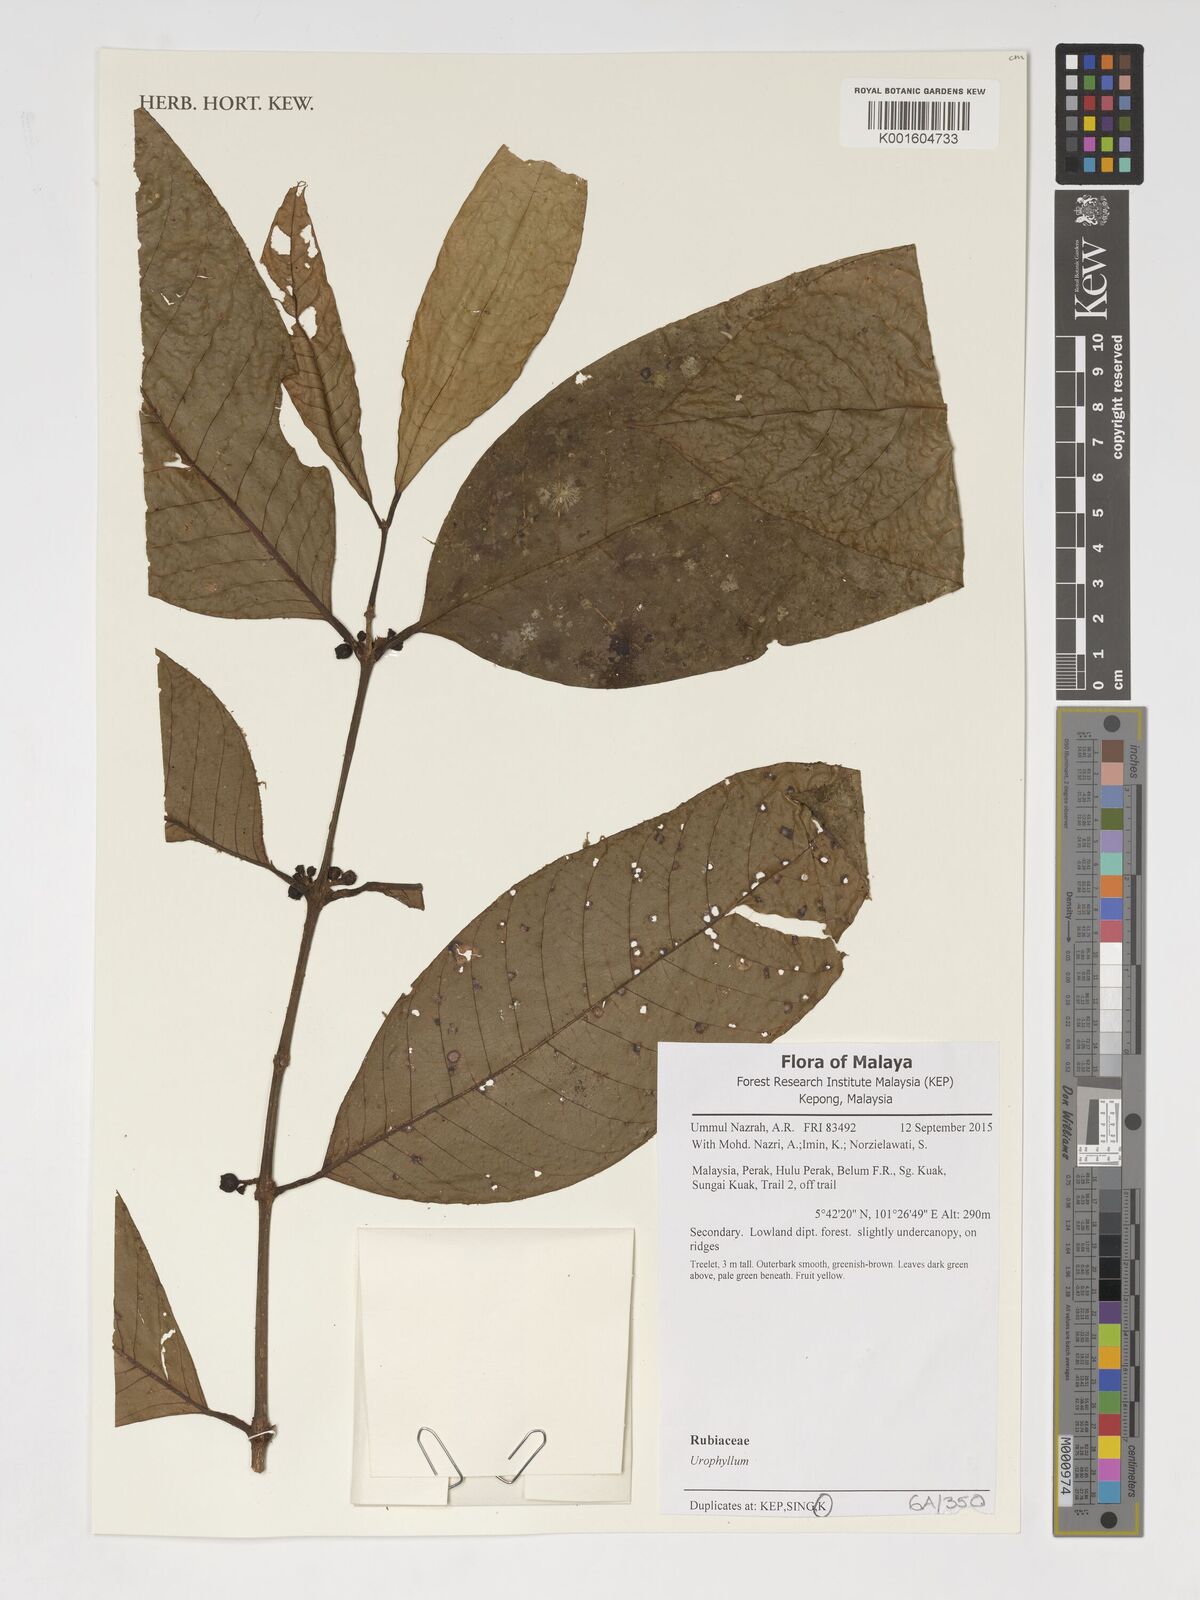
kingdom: Plantae
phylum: Tracheophyta
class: Magnoliopsida
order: Gentianales
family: Rubiaceae
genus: Urophyllum
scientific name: Urophyllum
